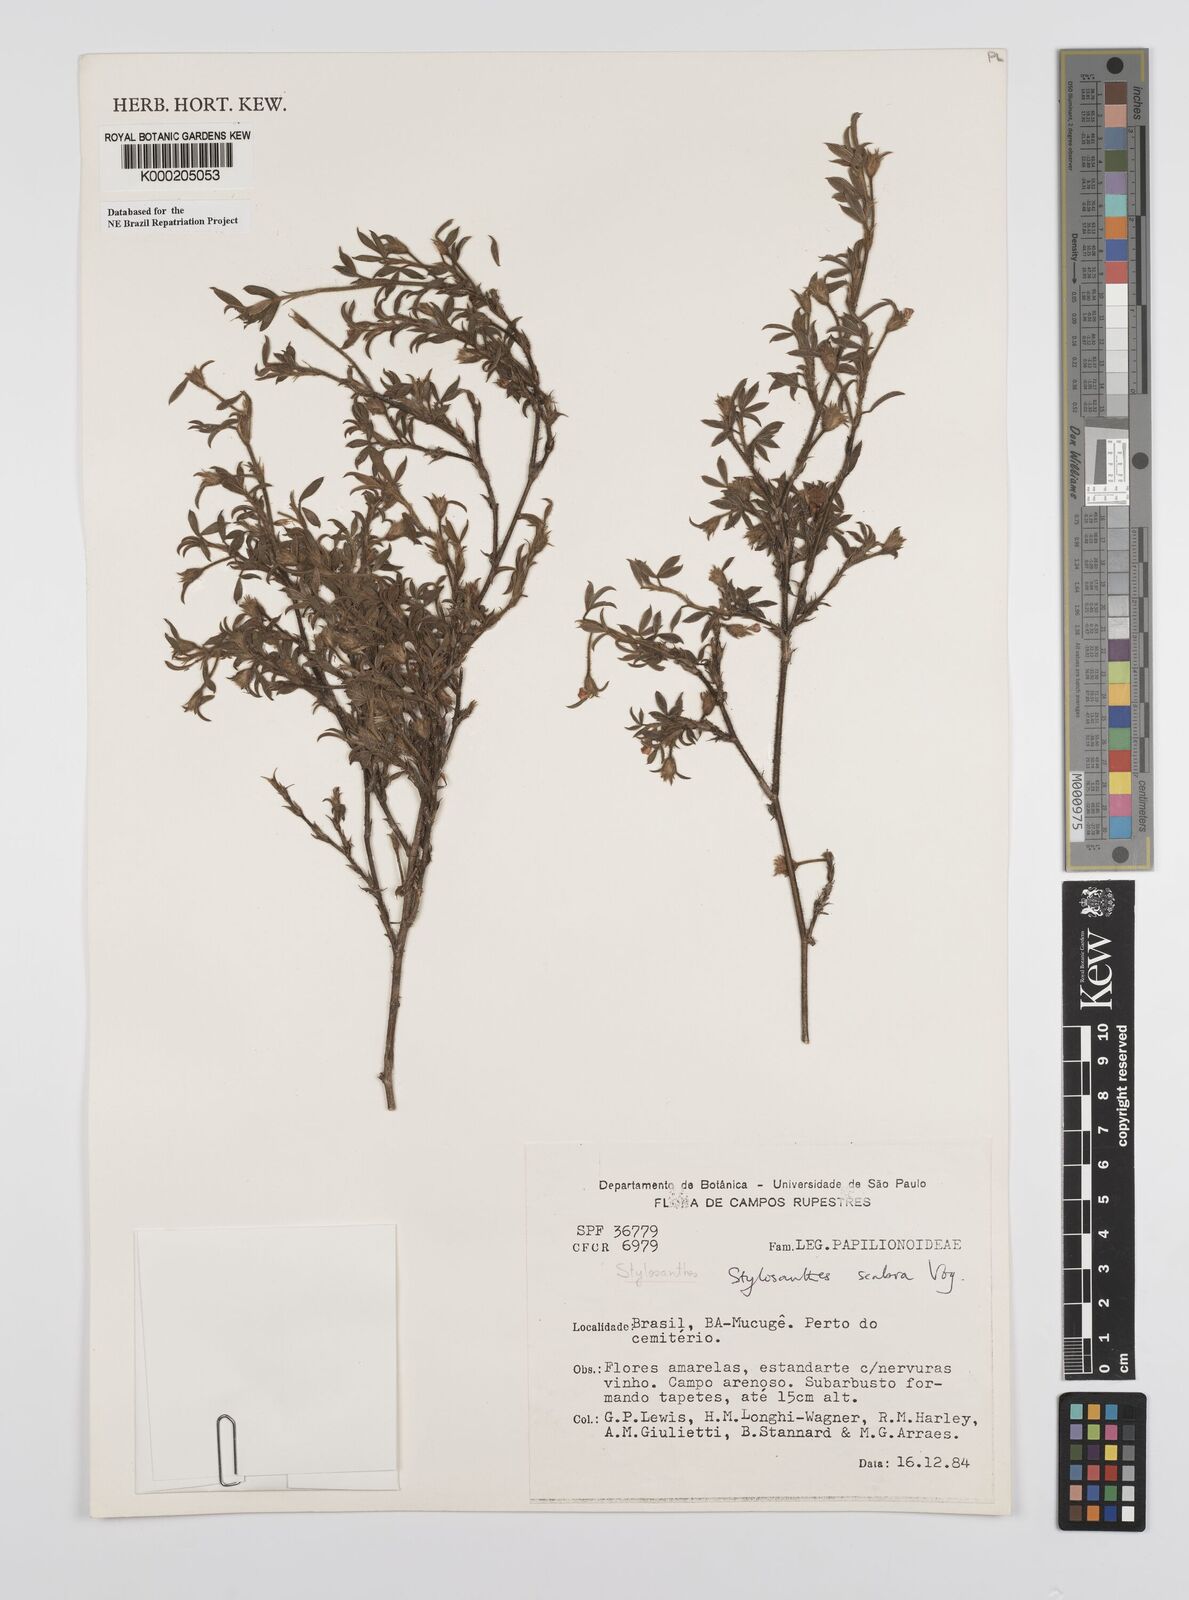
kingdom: Plantae
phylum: Tracheophyta
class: Magnoliopsida
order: Fabales
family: Fabaceae
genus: Stylosanthes
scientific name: Stylosanthes scabra
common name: Pencilflower
